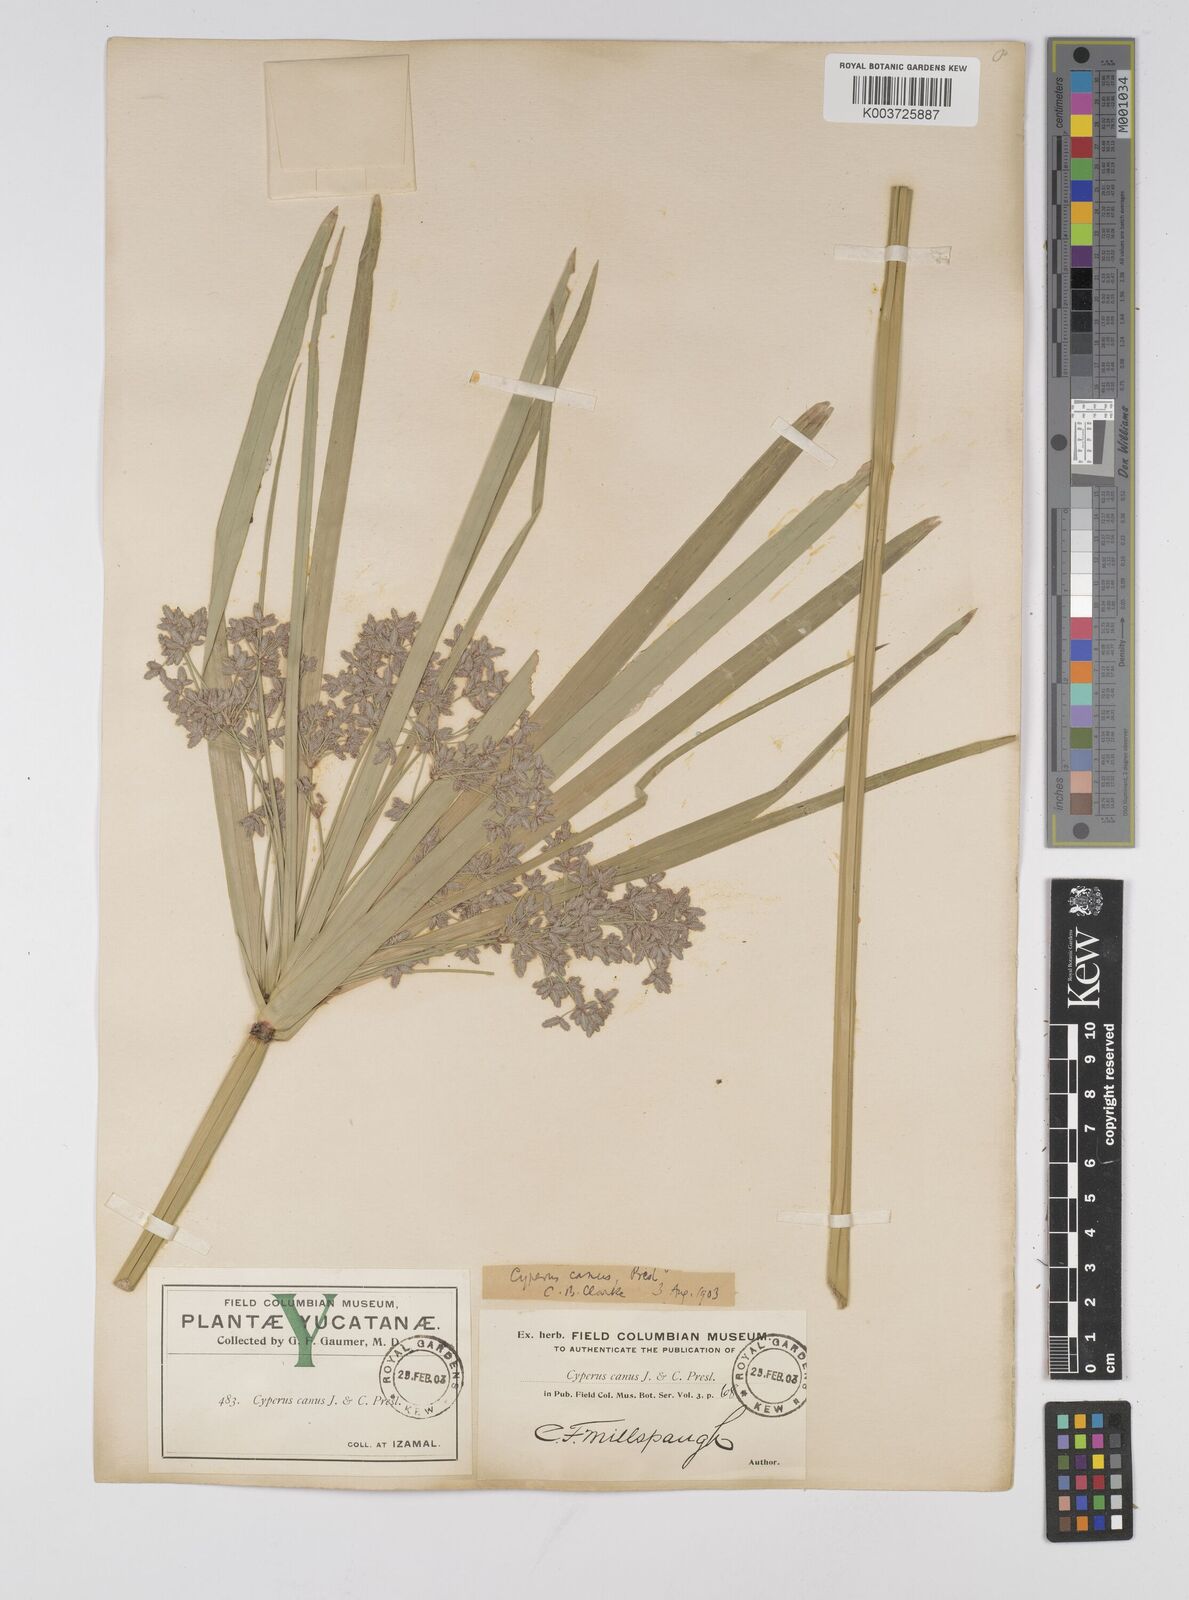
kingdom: Plantae
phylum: Tracheophyta
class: Liliopsida
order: Poales
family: Cyperaceae
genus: Cyperus
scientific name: Cyperus canus
